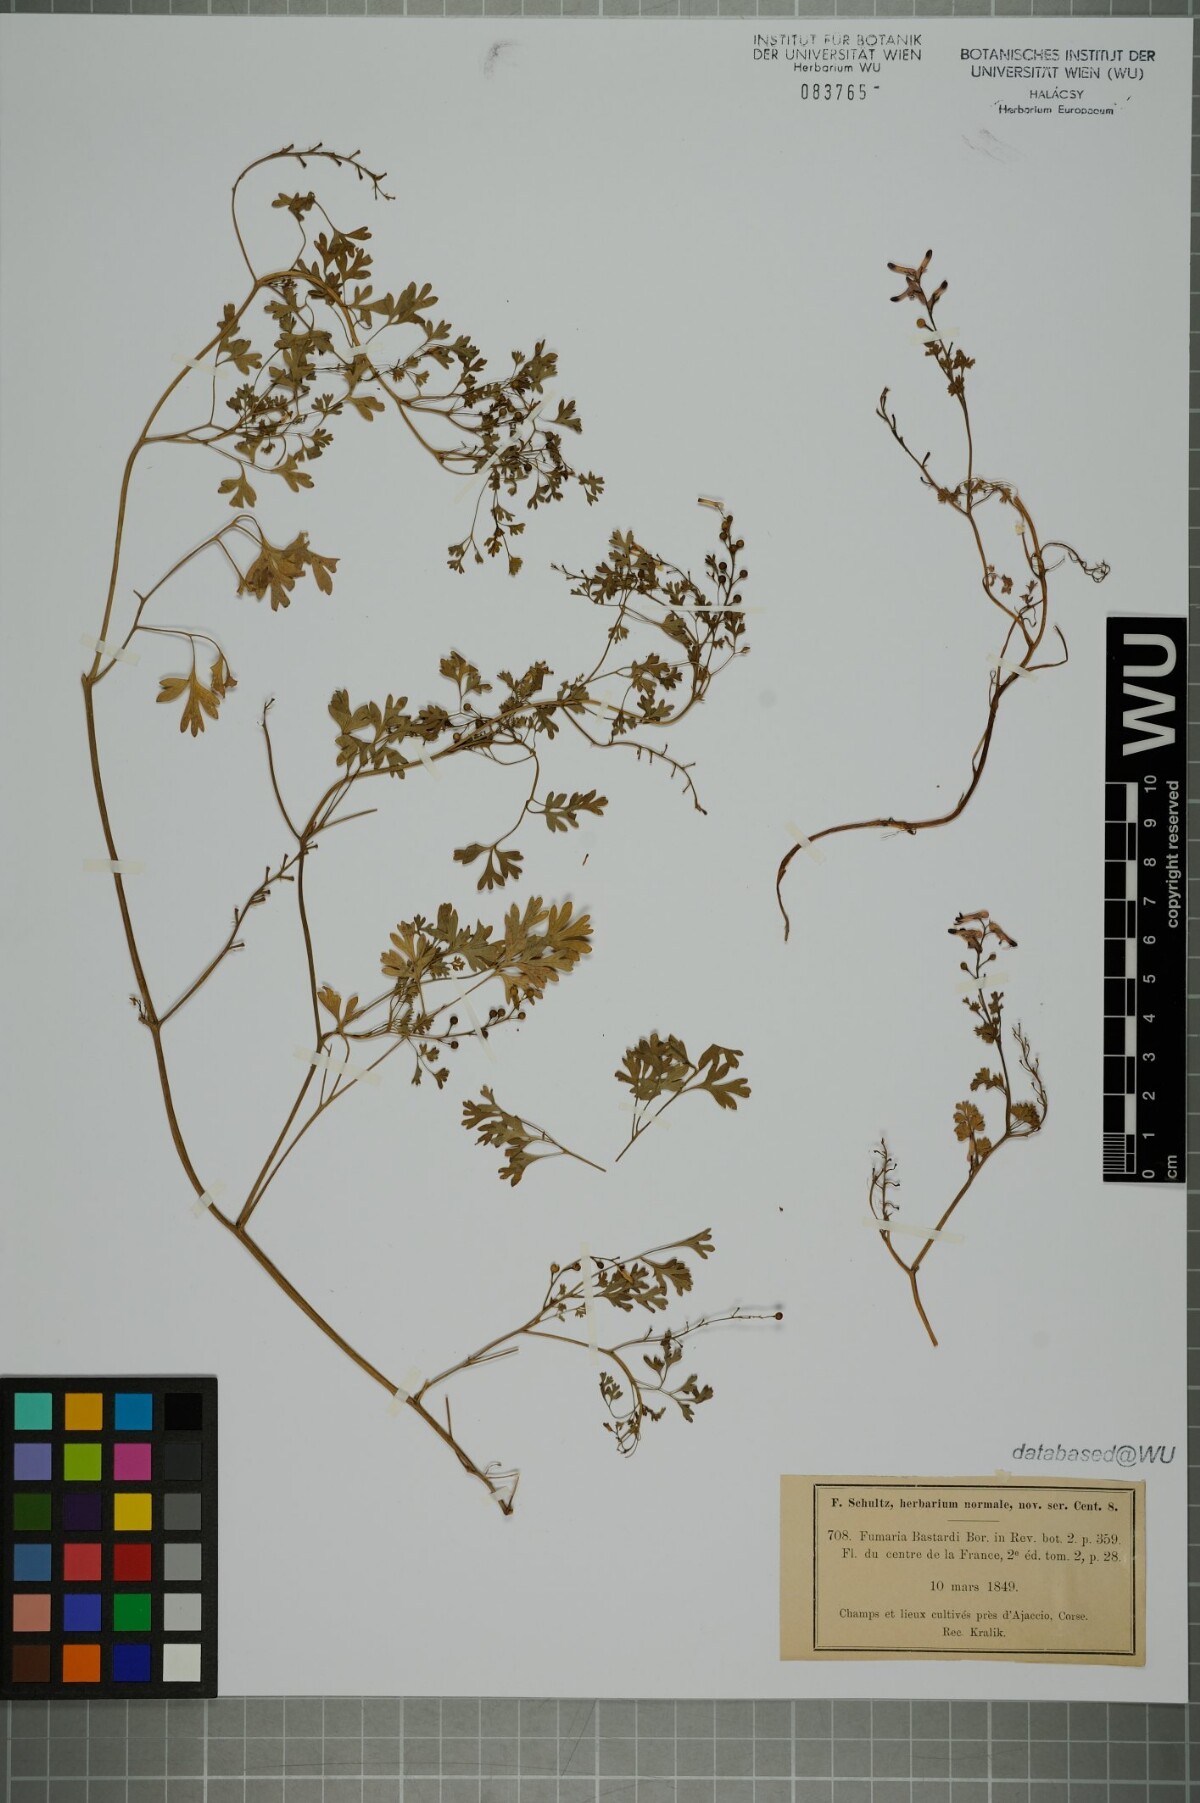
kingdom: Plantae
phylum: Tracheophyta
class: Magnoliopsida
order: Ranunculales
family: Papaveraceae
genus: Fumaria
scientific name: Fumaria bastardii
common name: Tall ramping-fumitory
